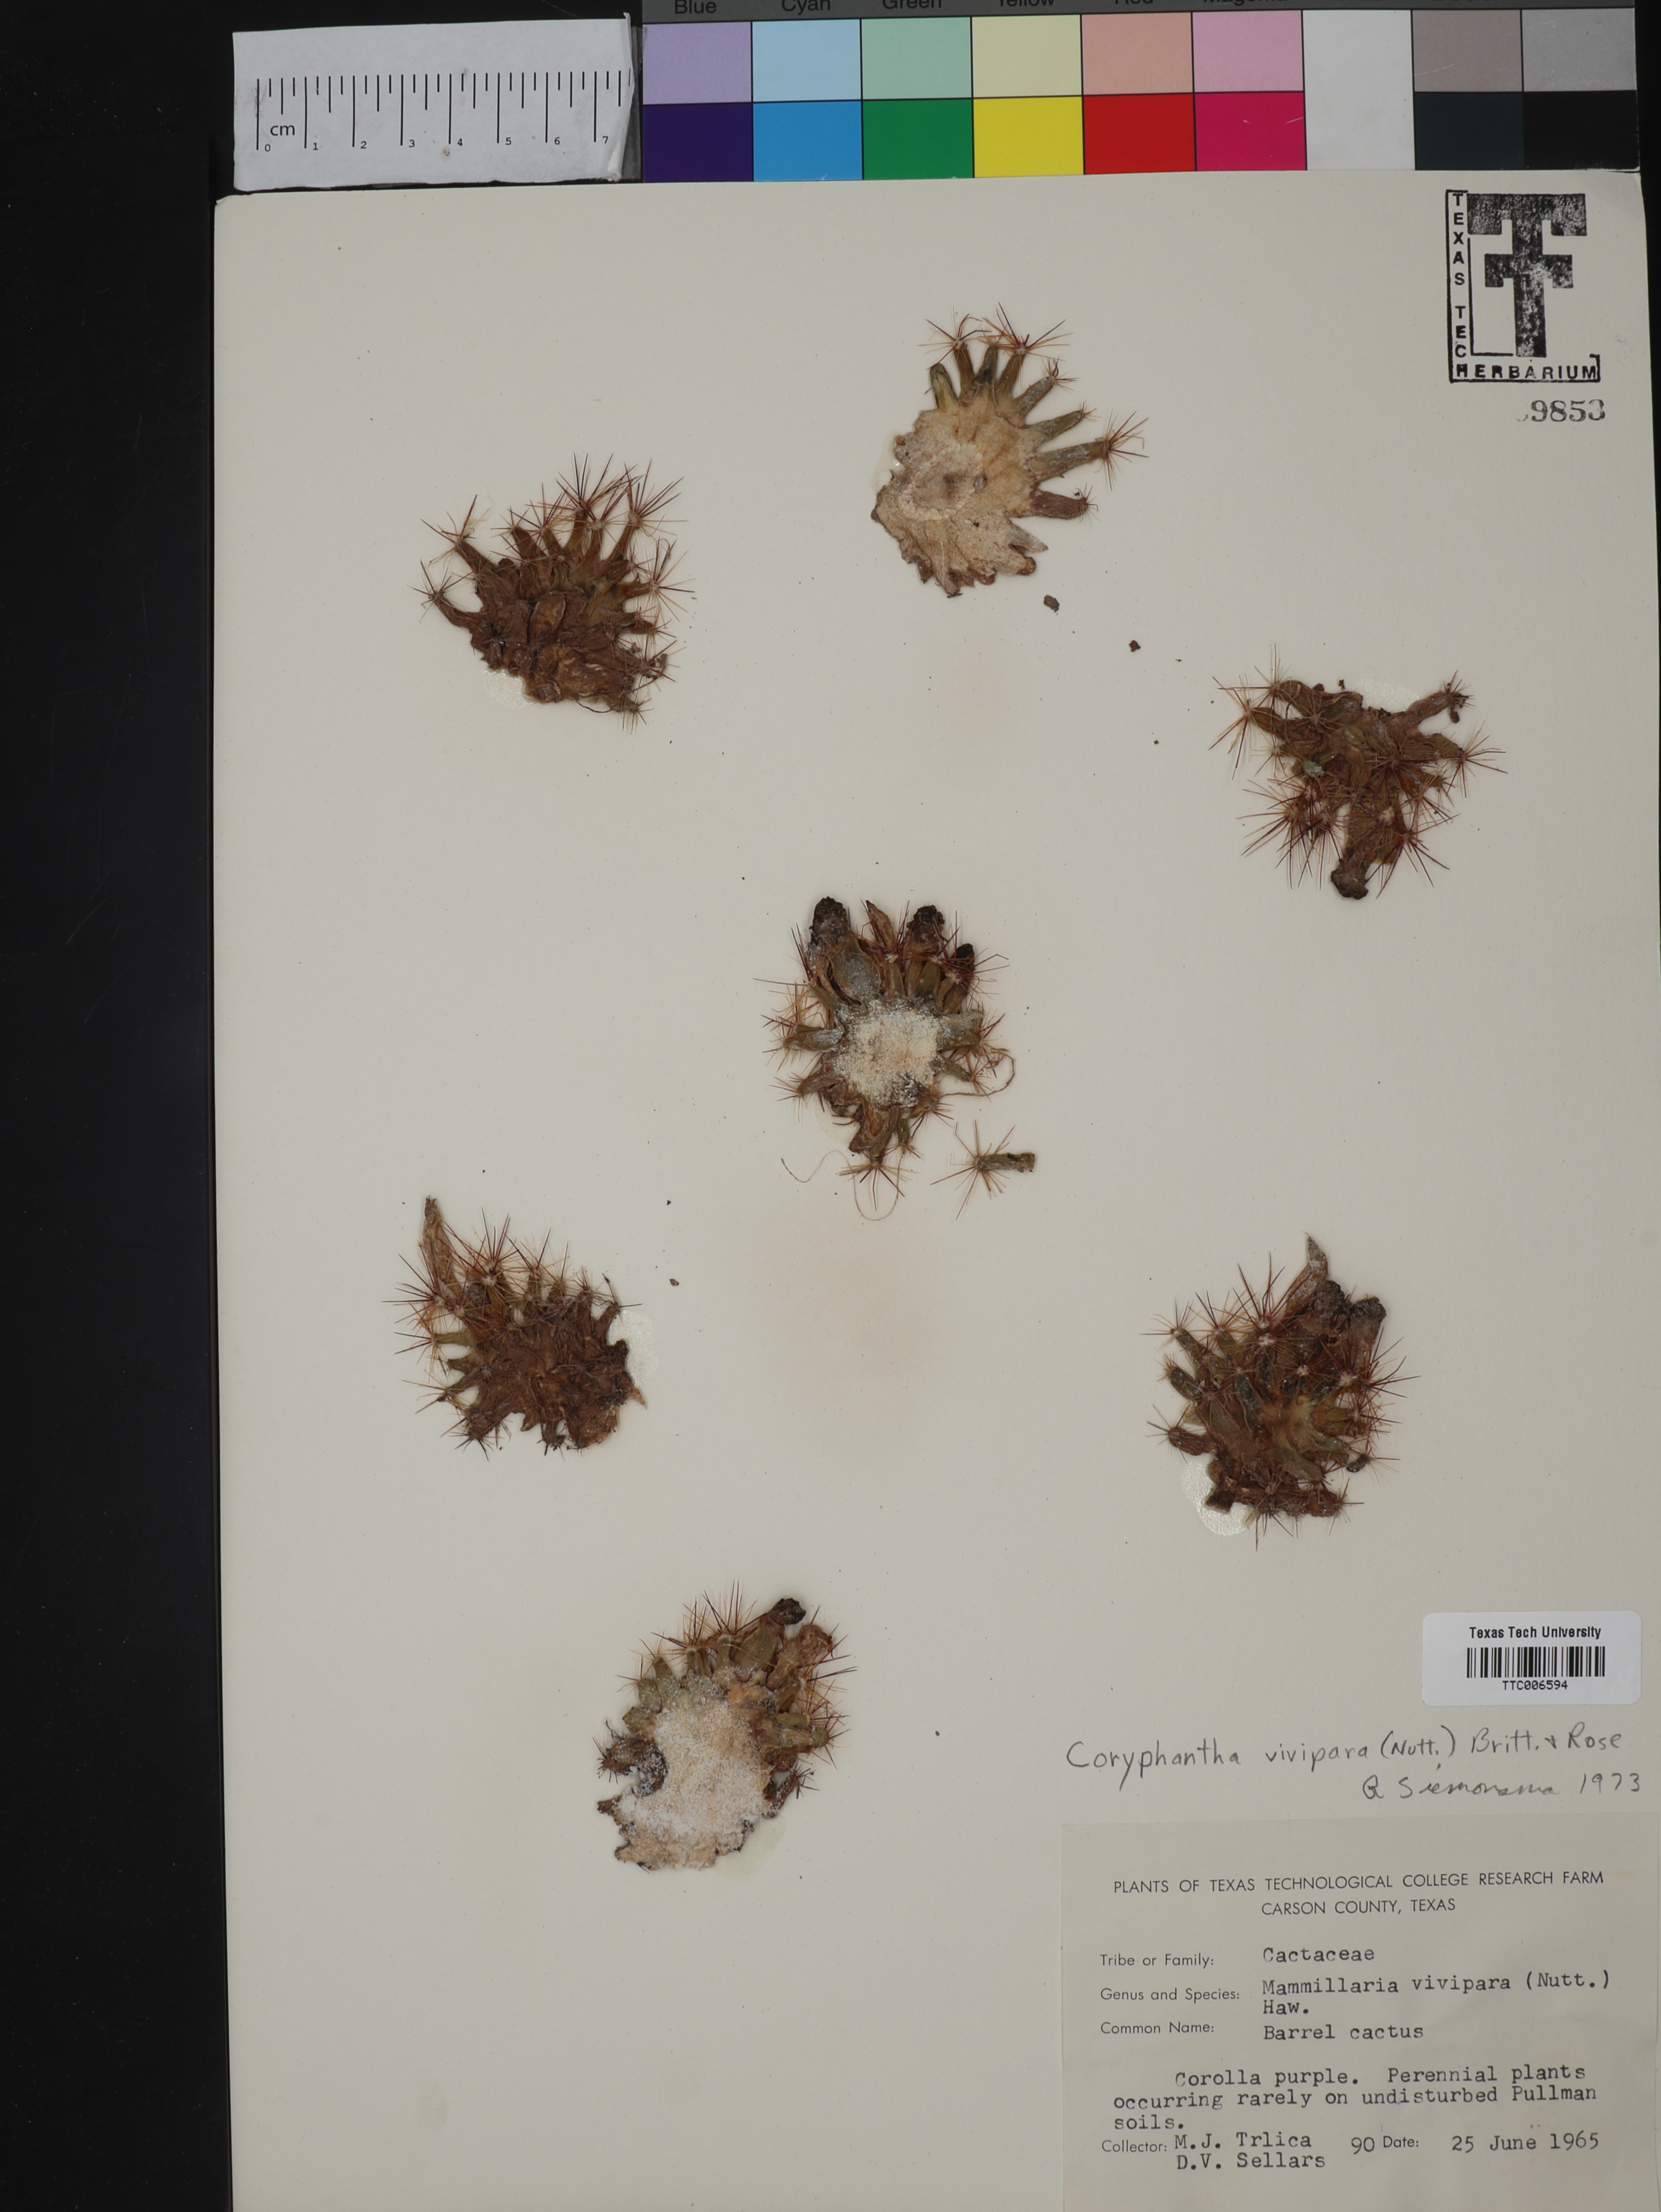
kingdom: Plantae
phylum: Tracheophyta
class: Magnoliopsida
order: Caryophyllales
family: Cactaceae
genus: Pelecyphora
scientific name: Pelecyphora vivipara
